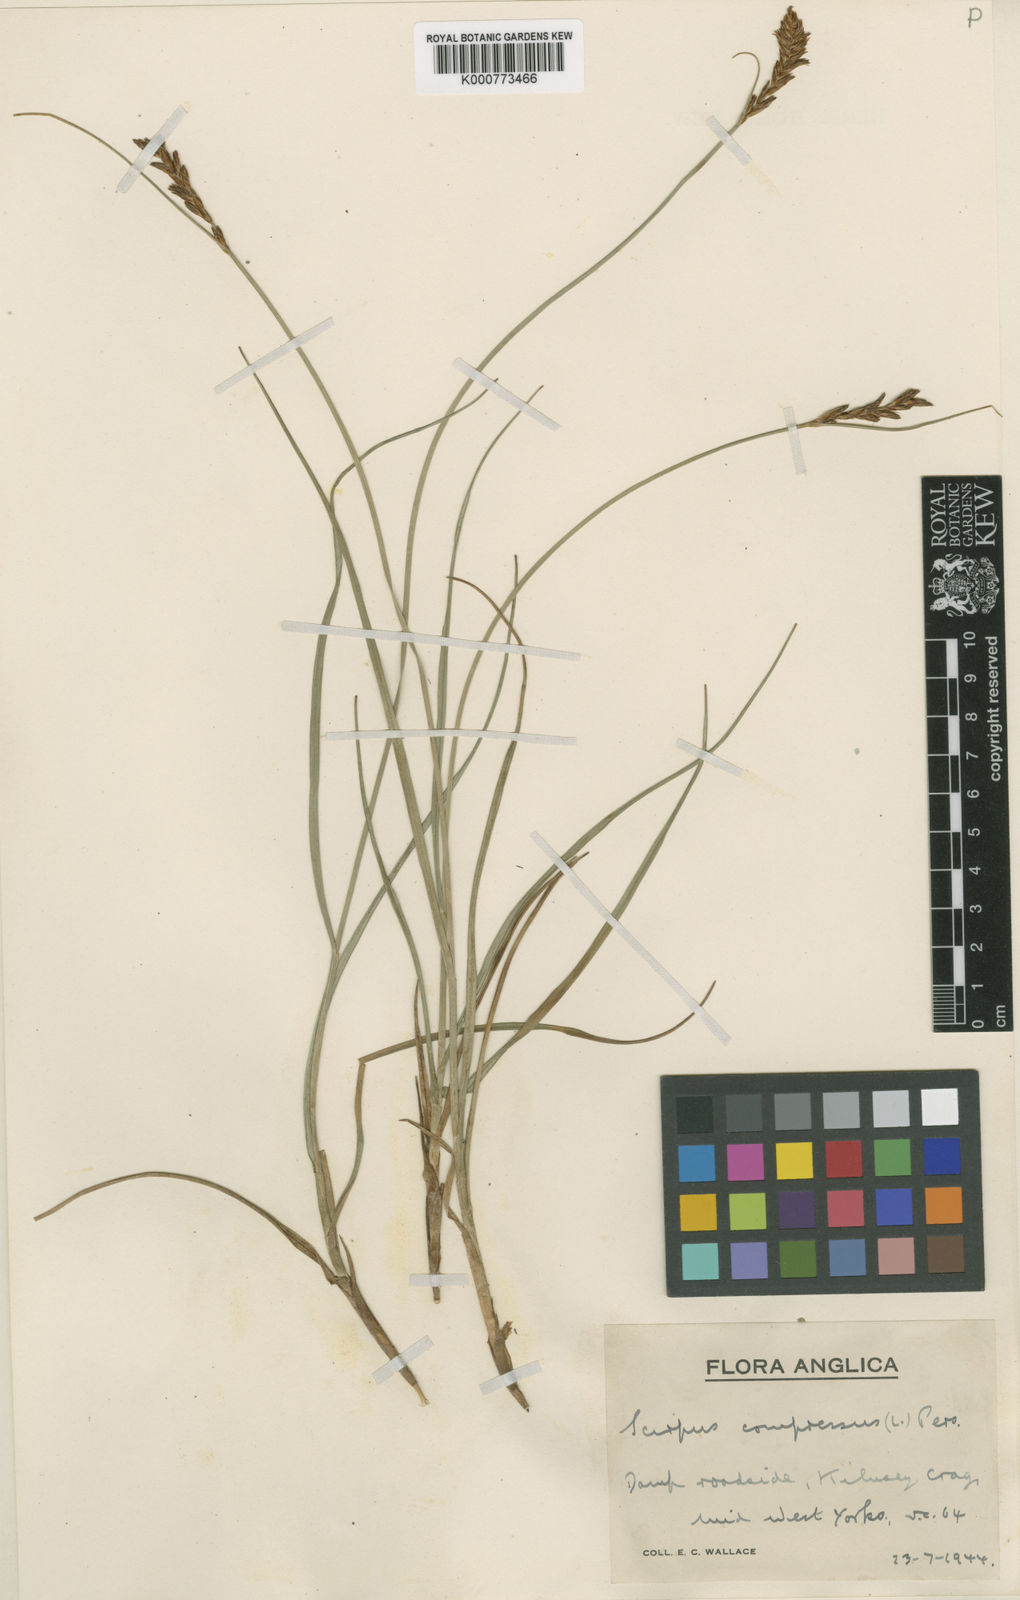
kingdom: Plantae
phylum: Tracheophyta
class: Liliopsida
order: Poales
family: Cyperaceae
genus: Blysmus
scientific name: Blysmus compressus
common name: Flat-sedge
